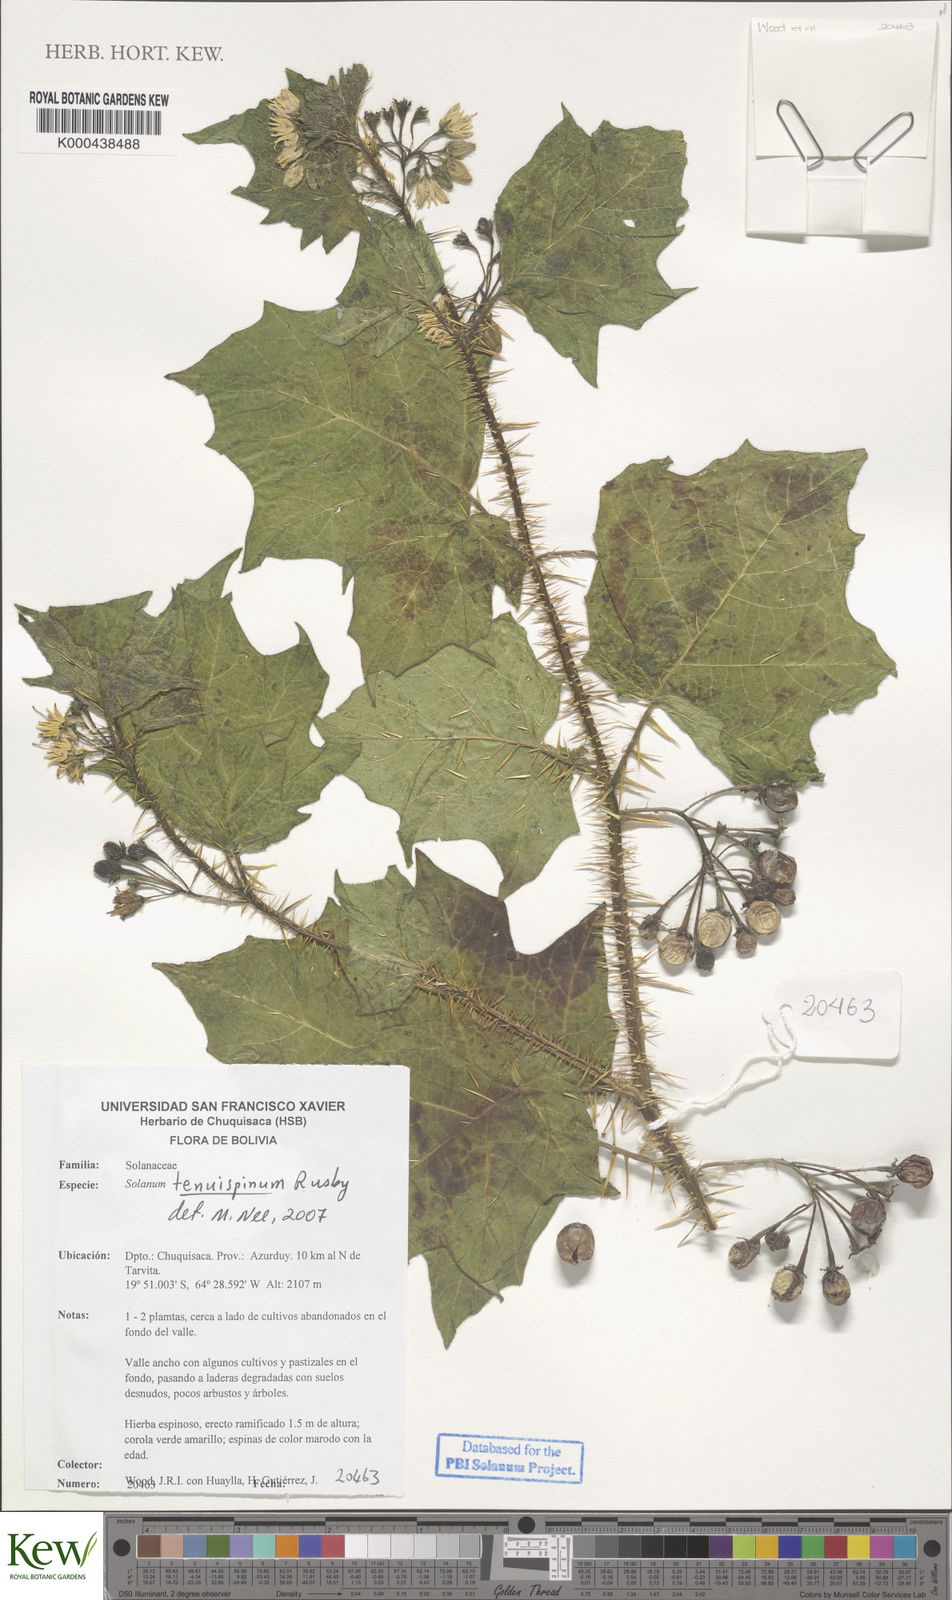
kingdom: Plantae
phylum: Tracheophyta
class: Magnoliopsida
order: Solanales
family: Solanaceae
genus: Solanum
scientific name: Solanum tenuispinum
